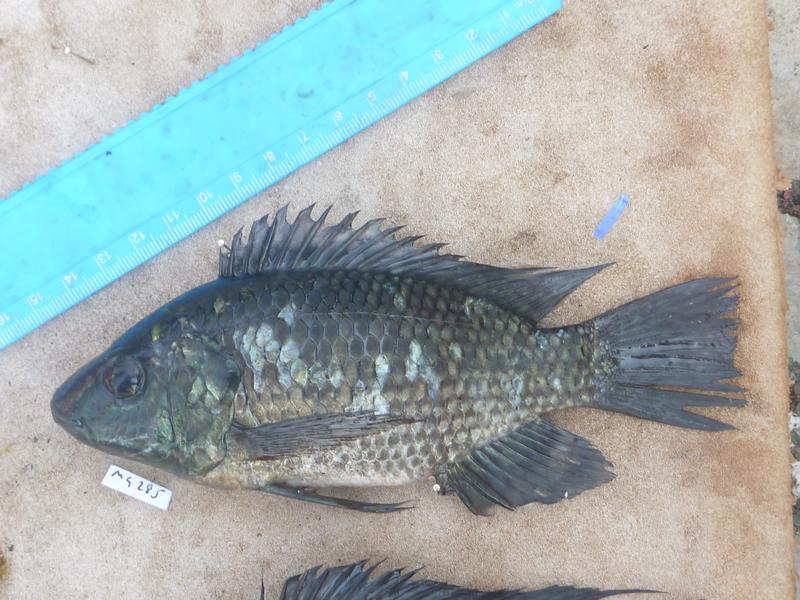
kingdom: Animalia
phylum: Chordata
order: Perciformes
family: Cichlidae
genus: Oreochromis
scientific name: Oreochromis leucostictus
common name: Blue spotted tilapia
